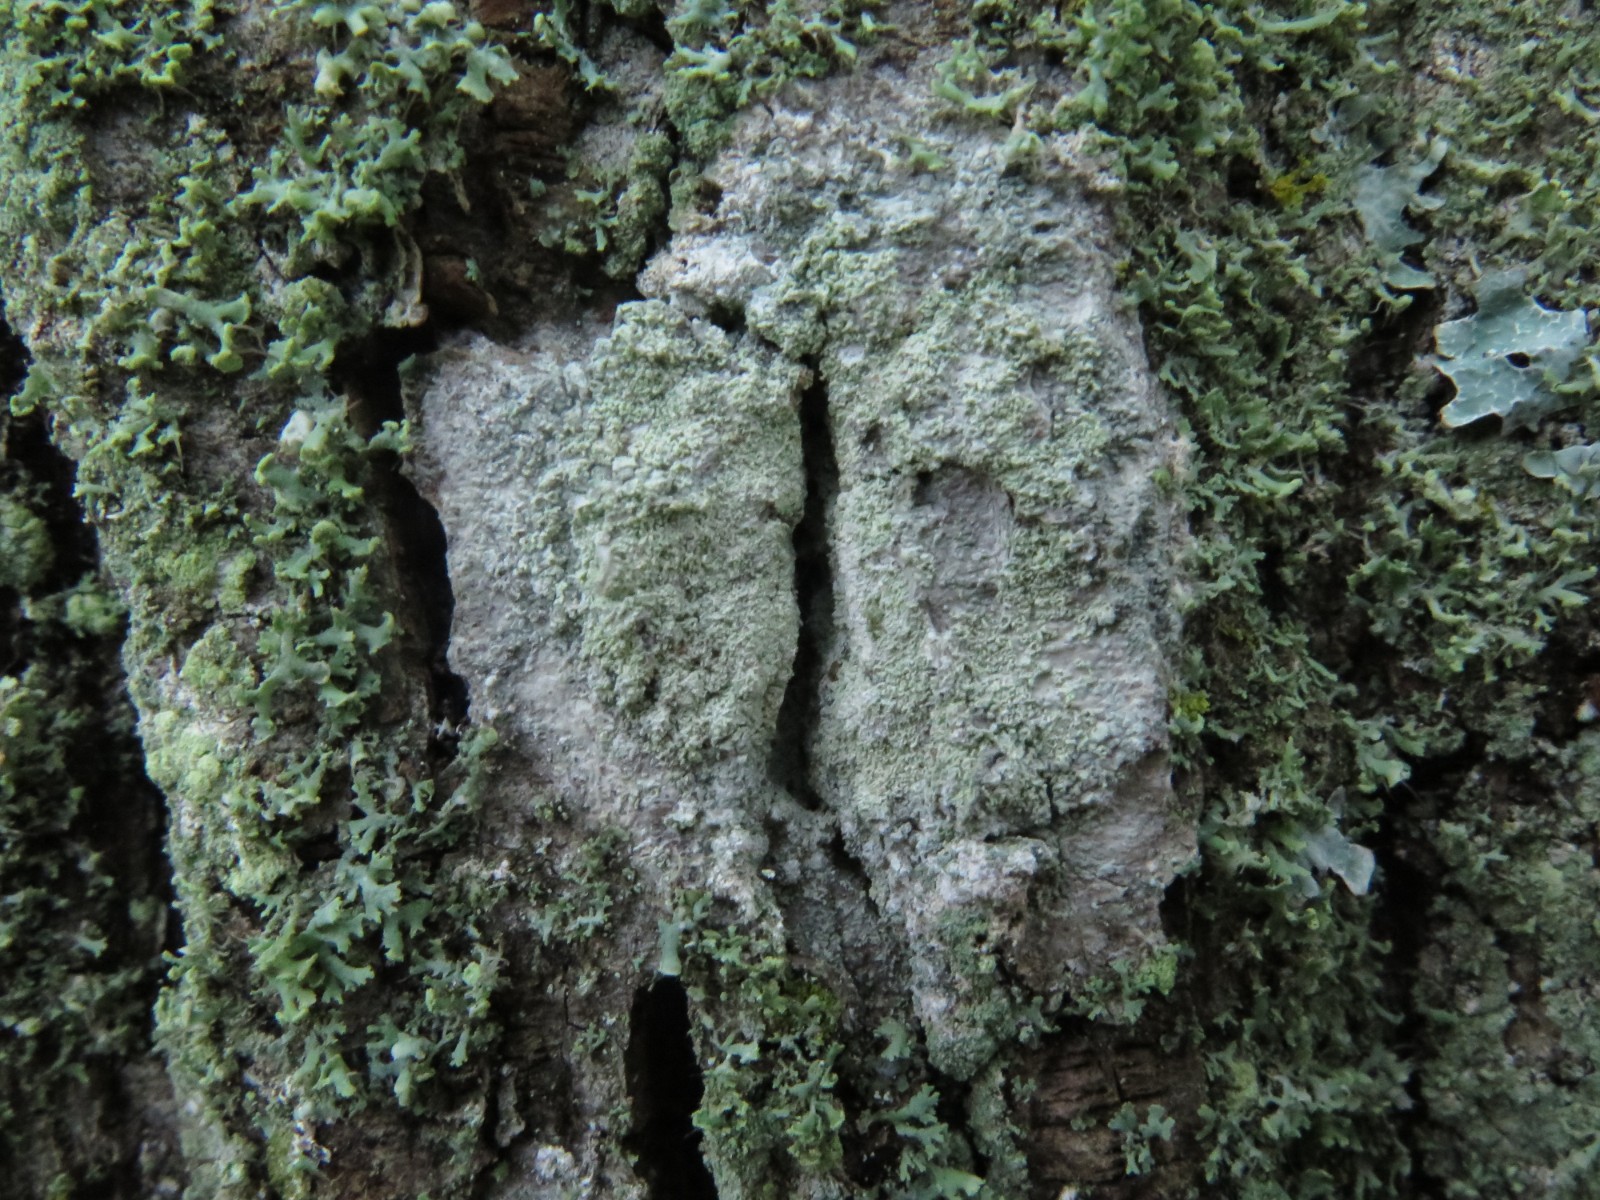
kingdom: Fungi
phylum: Ascomycota
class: Lecanoromycetes
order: Ostropales
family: Phlyctidaceae
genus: Phlyctis
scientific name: Phlyctis argena
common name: almindelig sølvlav
